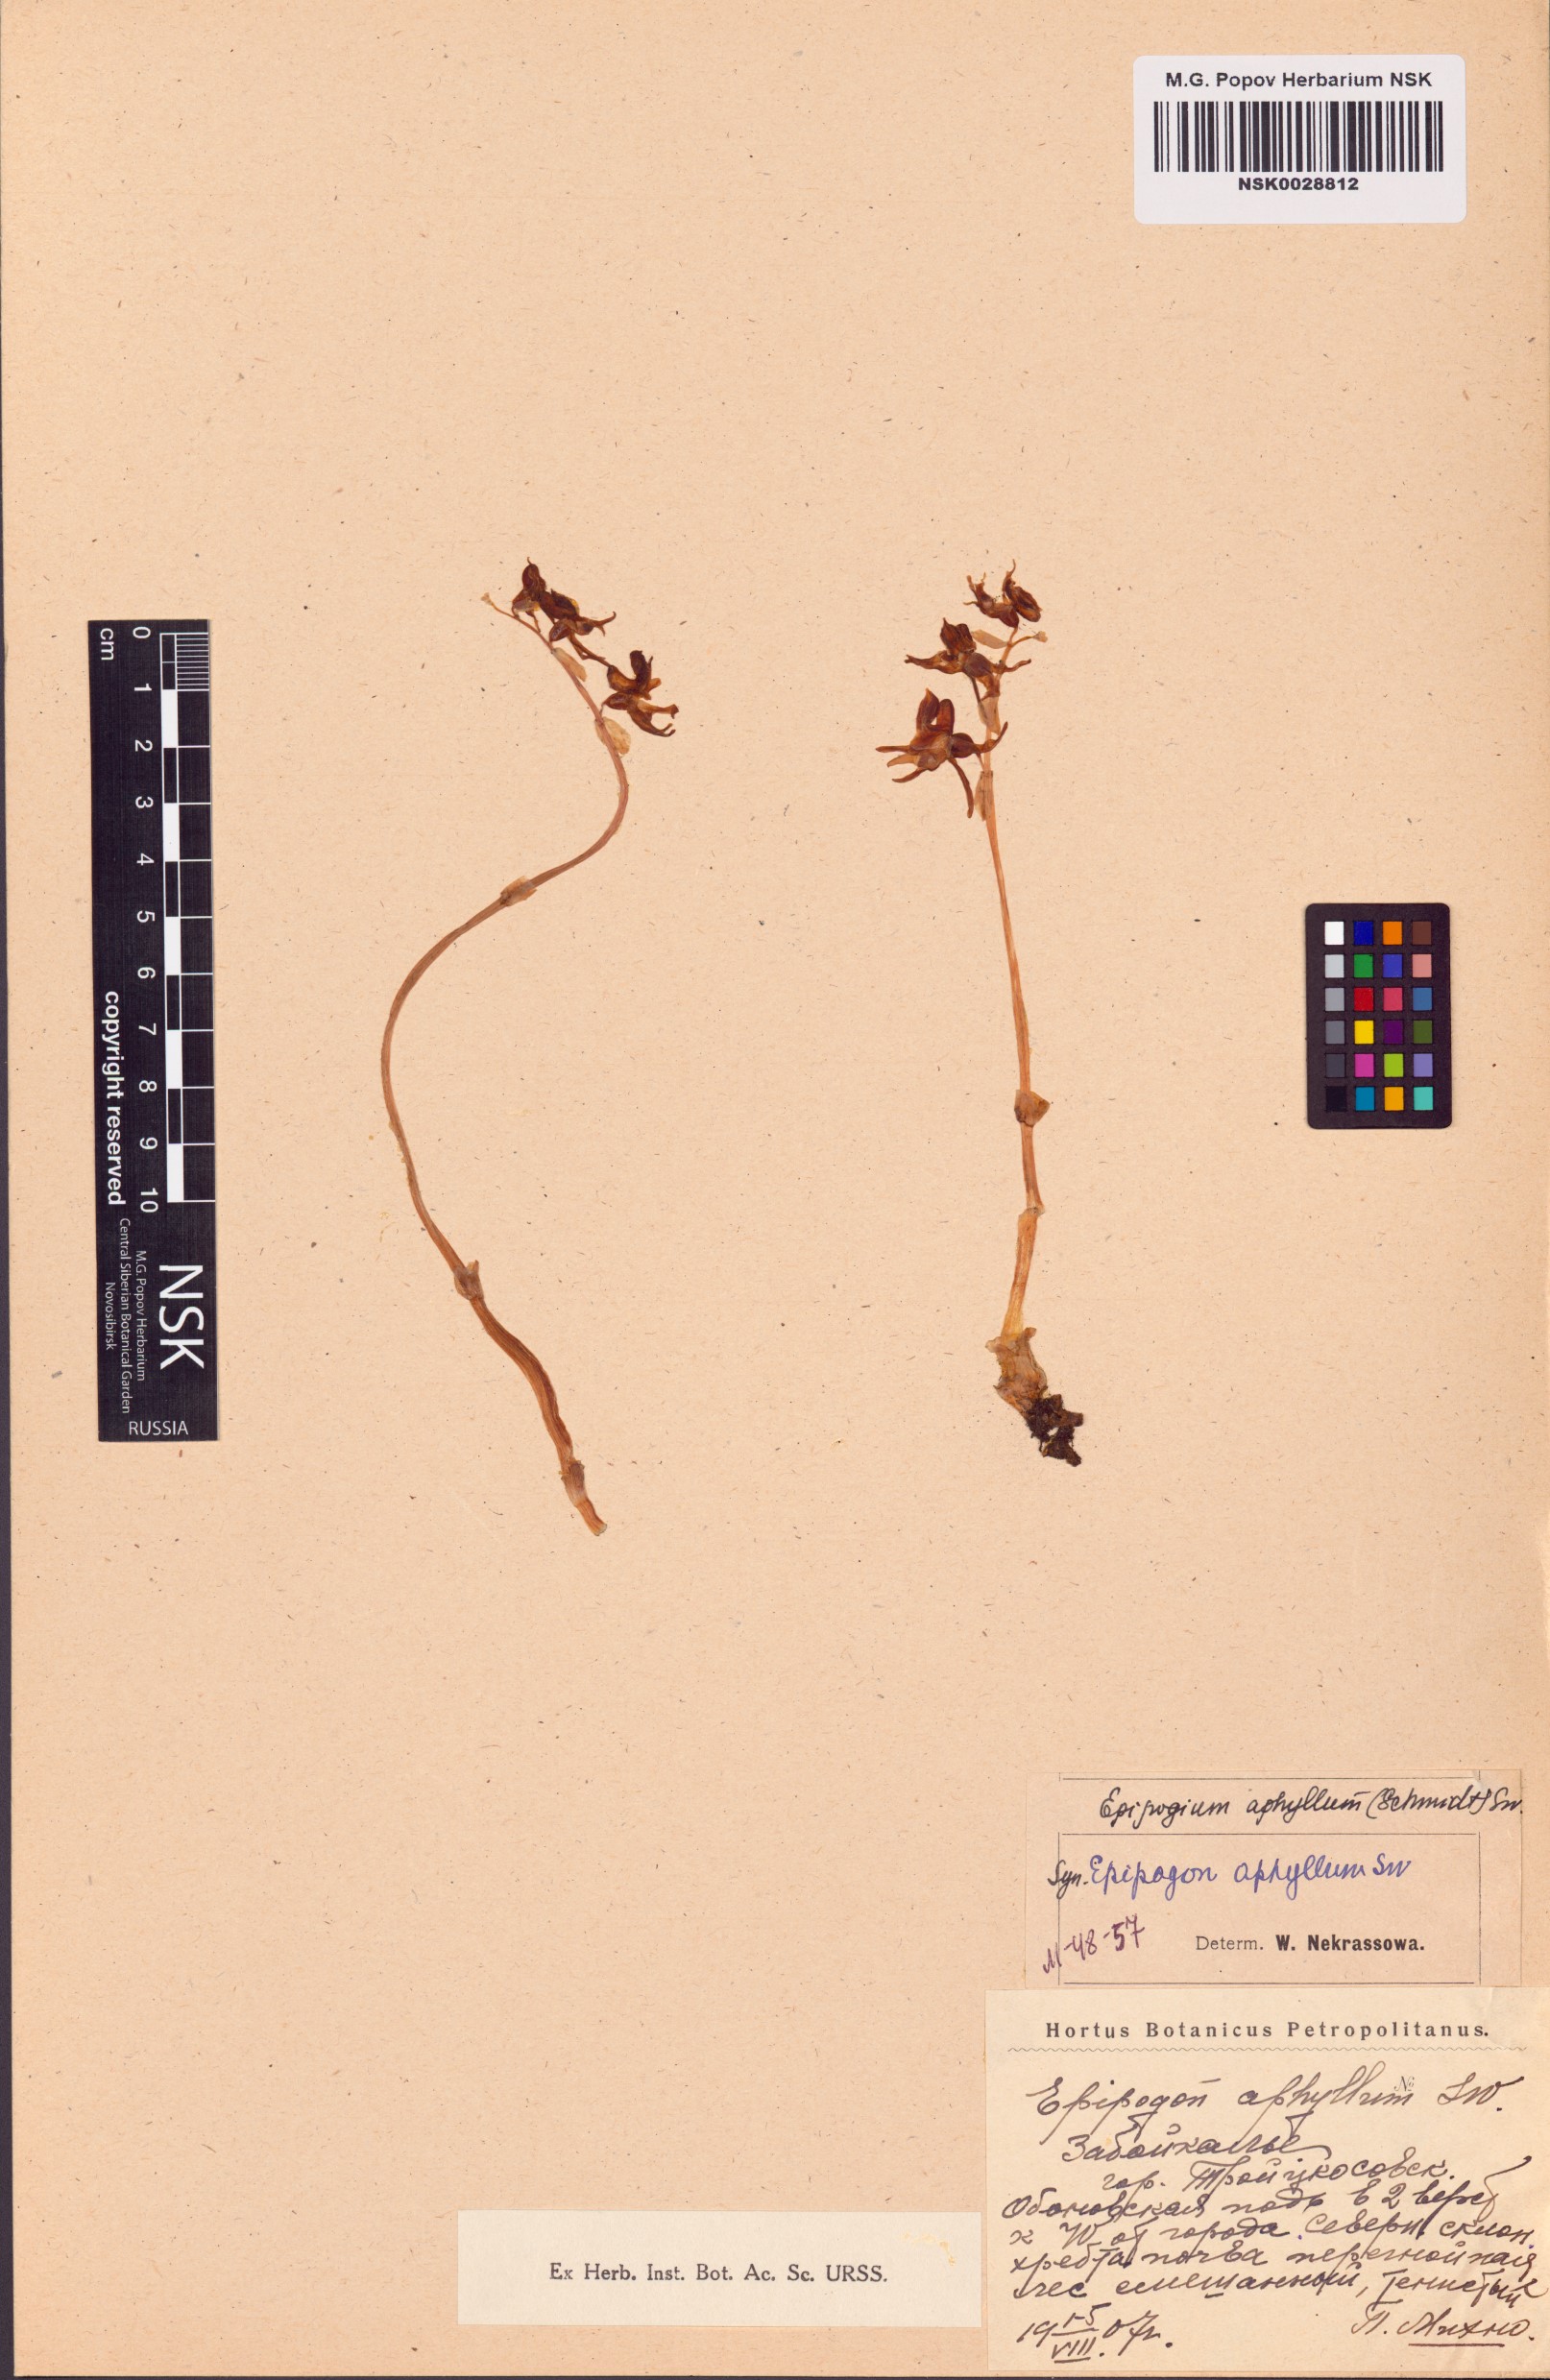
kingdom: Plantae
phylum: Tracheophyta
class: Liliopsida
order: Asparagales
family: Orchidaceae
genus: Epipogium
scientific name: Epipogium aphyllum
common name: Ghost orchid
